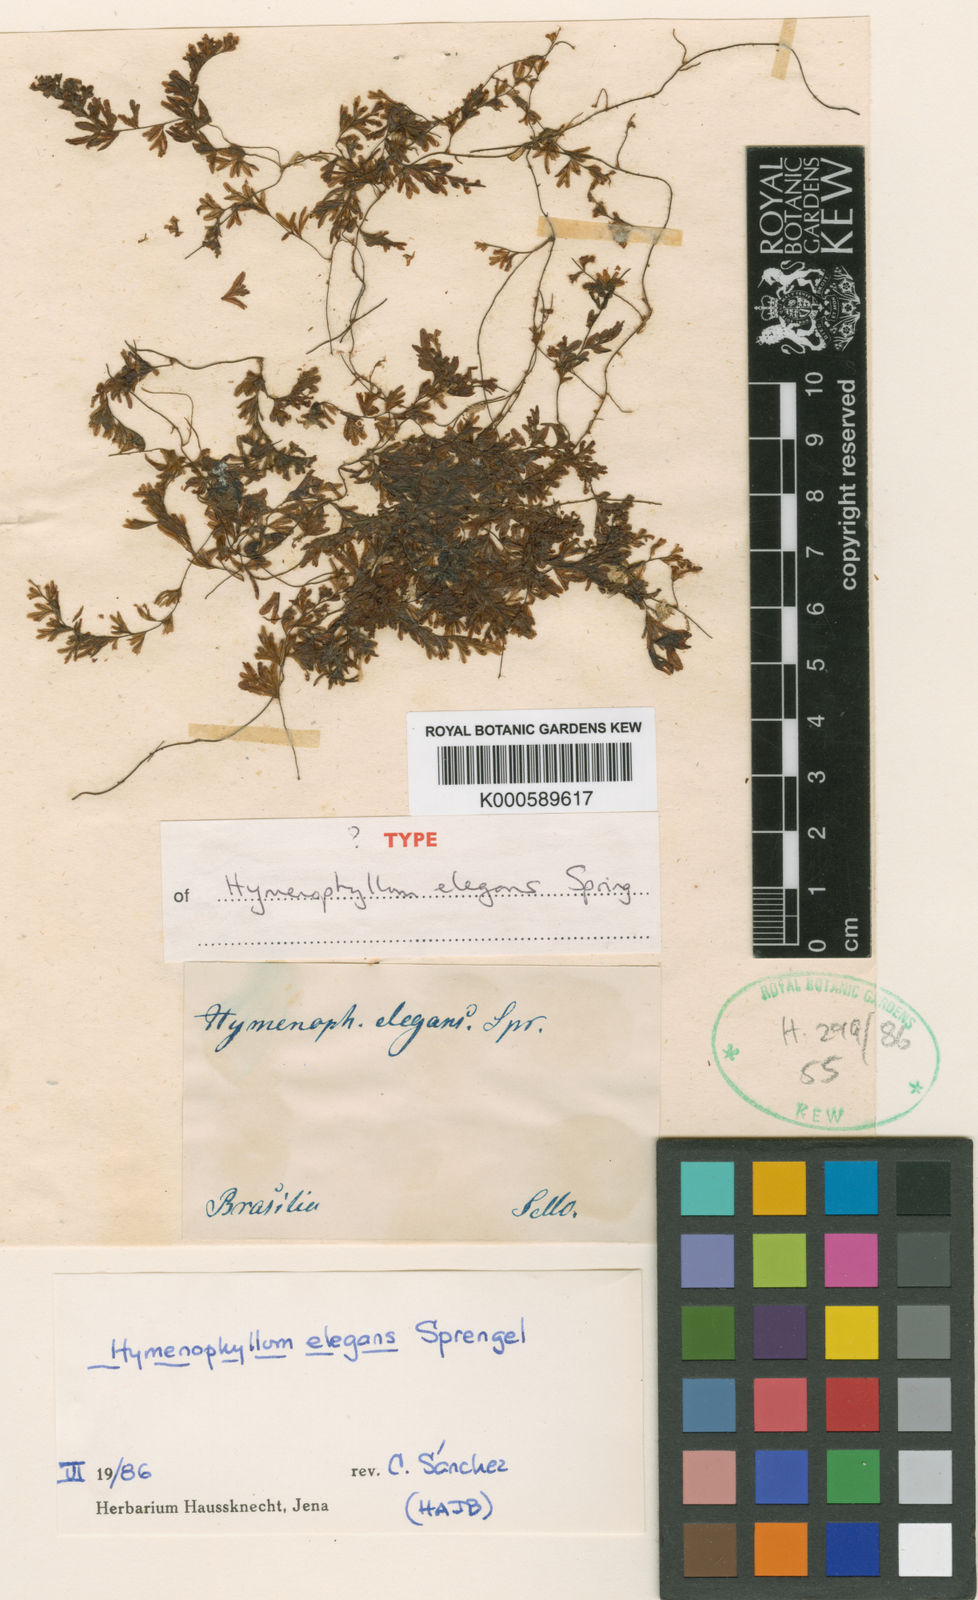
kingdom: Plantae
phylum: Tracheophyta
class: Polypodiopsida
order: Hymenophyllales
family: Hymenophyllaceae
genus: Hymenophyllum
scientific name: Hymenophyllum elegans
